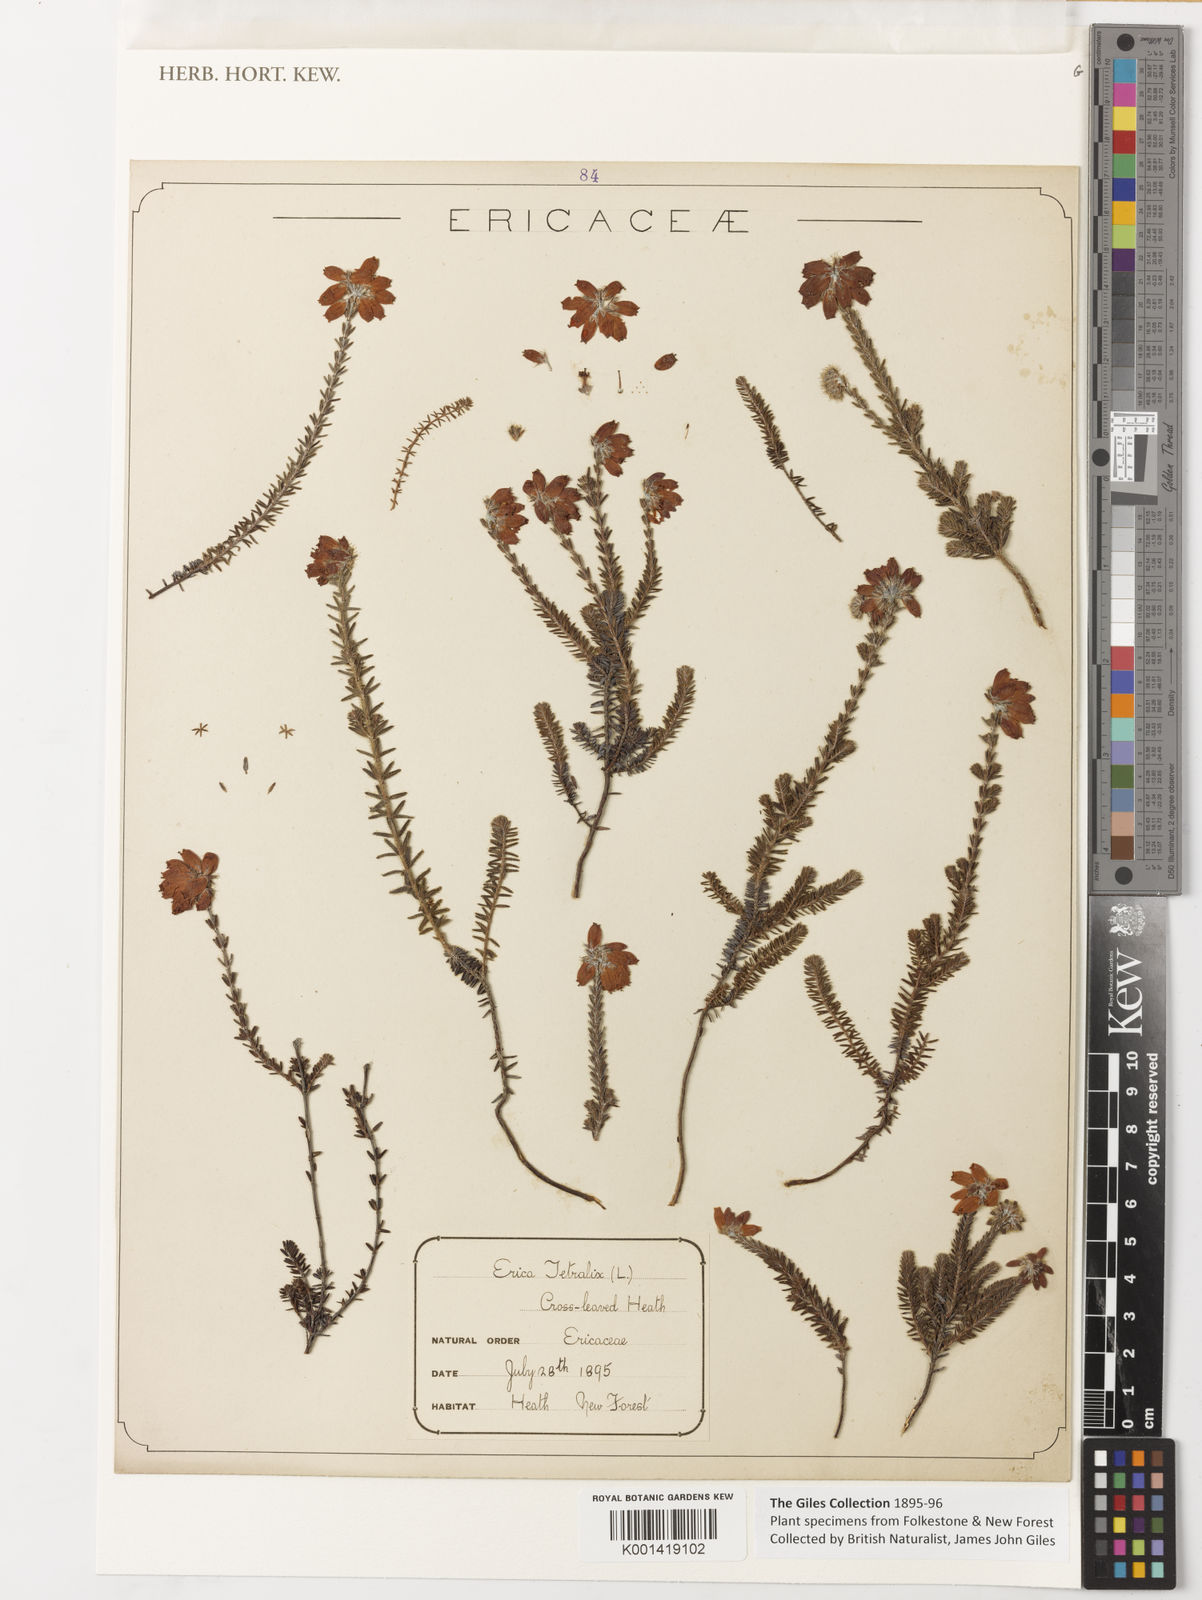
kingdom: Plantae
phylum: Tracheophyta
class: Magnoliopsida
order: Ericales
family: Ericaceae
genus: Erica
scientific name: Erica tetralix
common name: Cross-leaved heath
